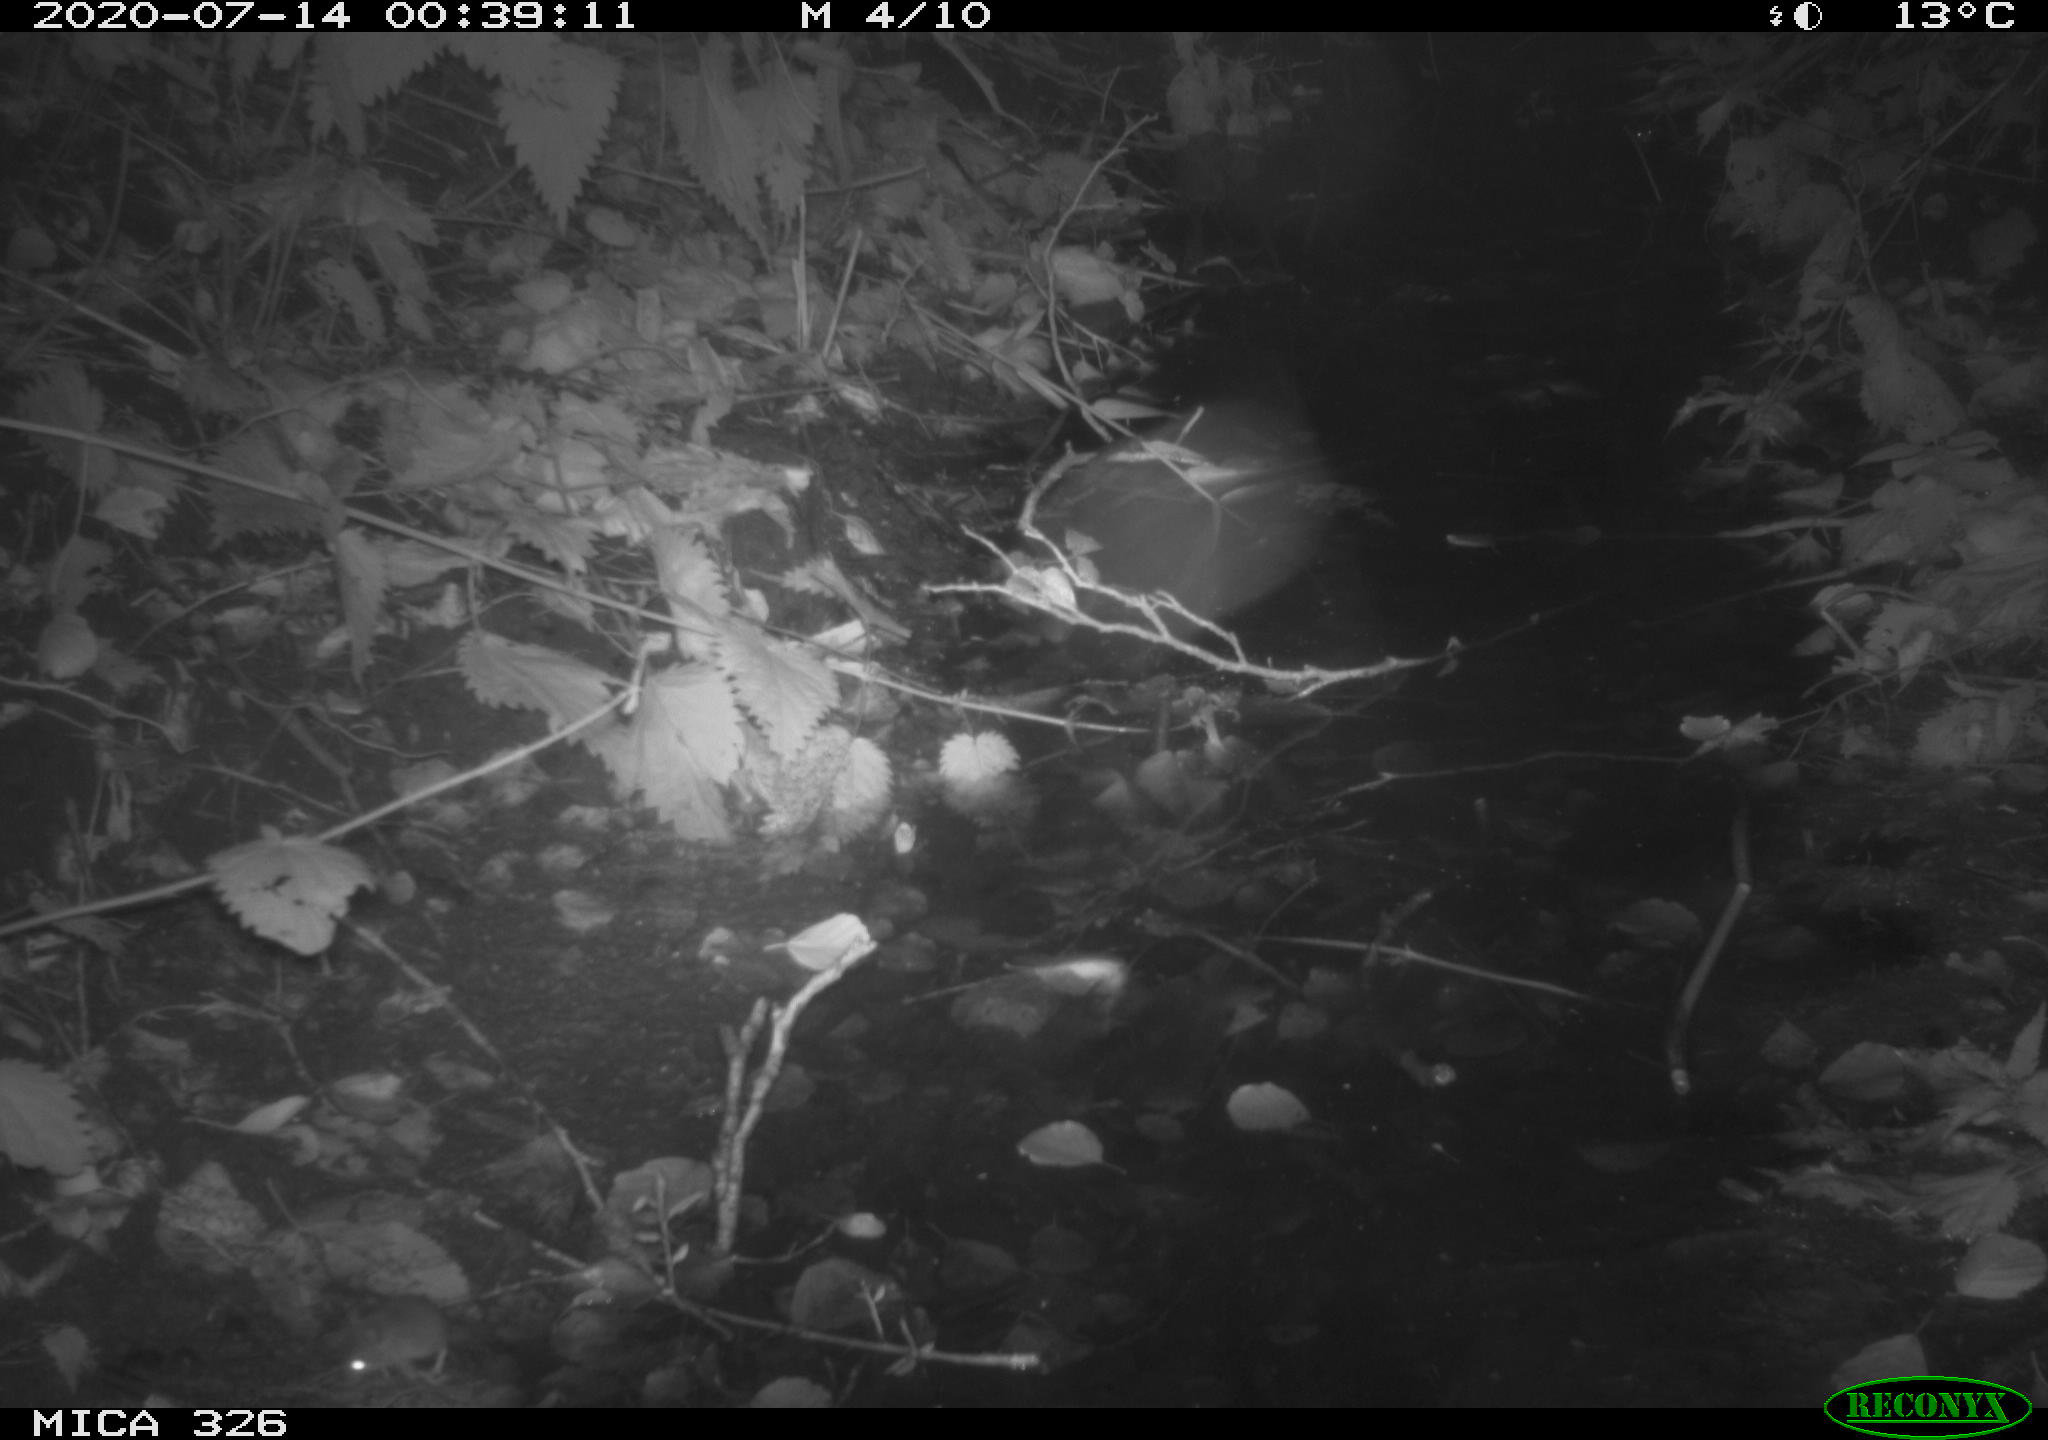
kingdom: Animalia
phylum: Chordata
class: Mammalia
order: Rodentia
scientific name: Rodentia
